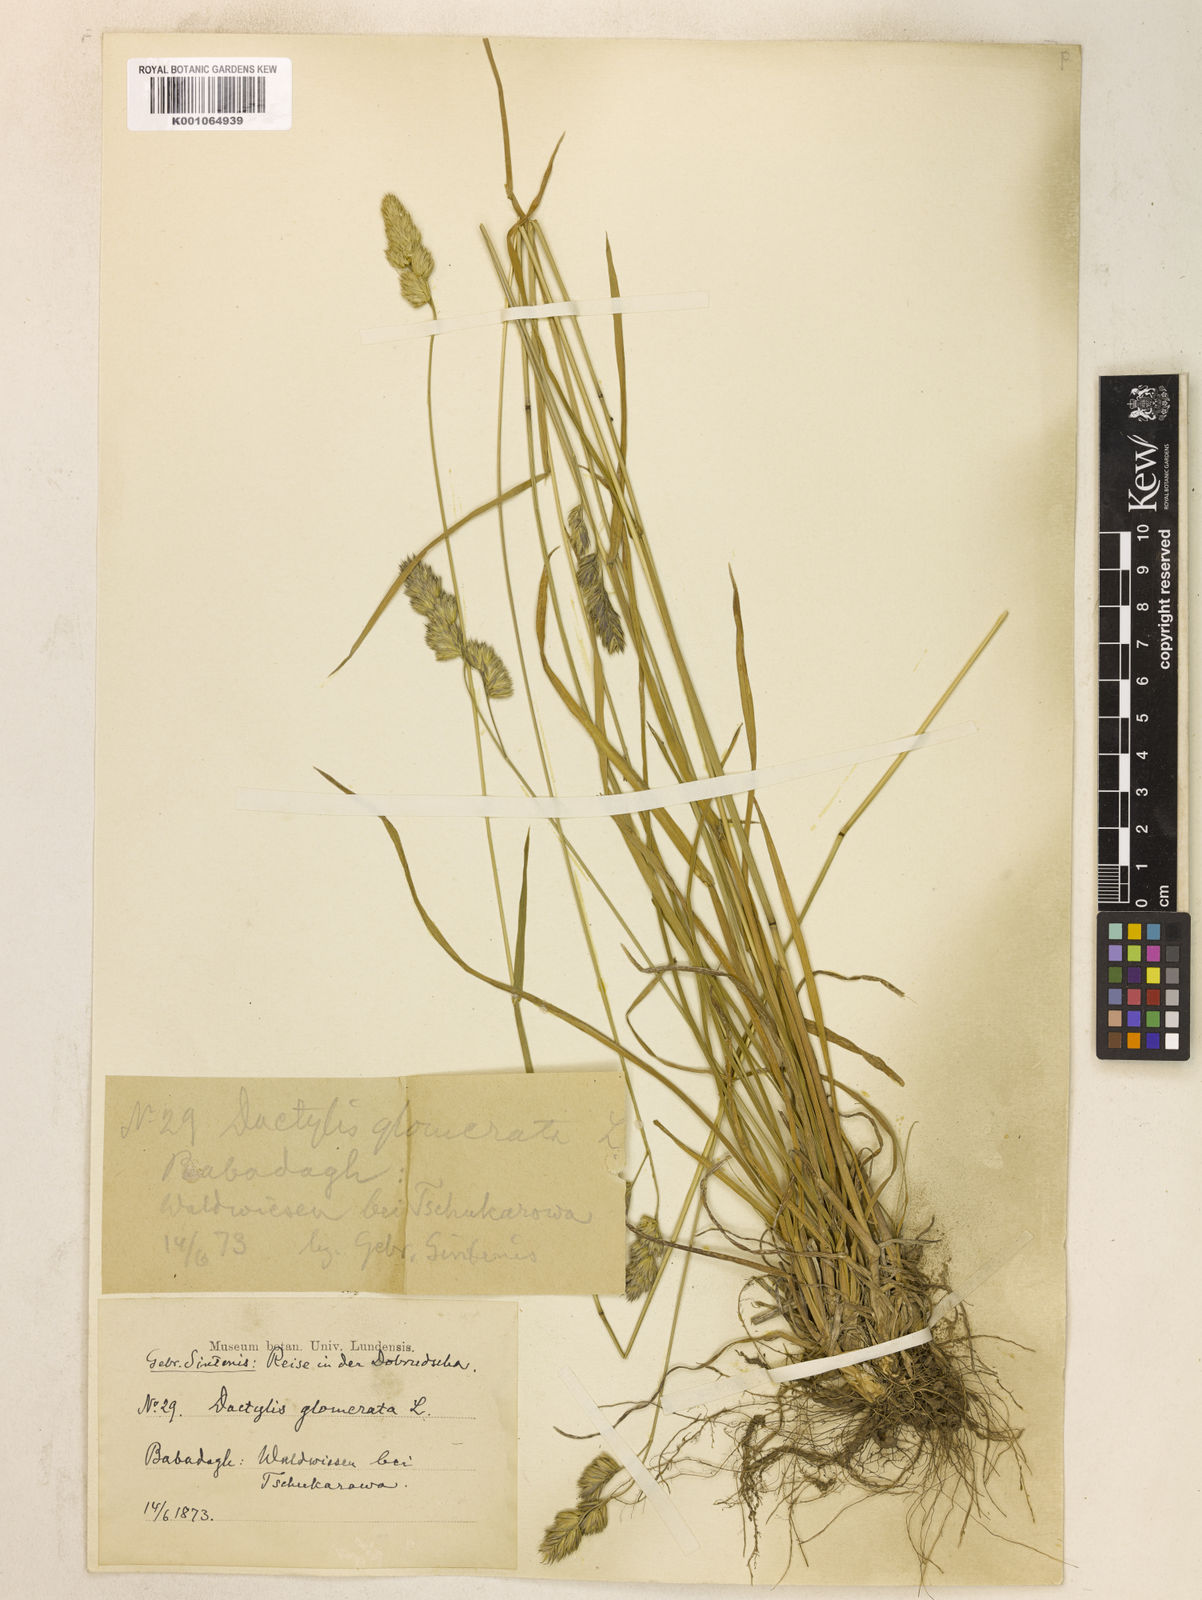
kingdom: Plantae
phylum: Tracheophyta
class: Liliopsida
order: Poales
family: Poaceae
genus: Dactylis
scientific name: Dactylis glomerata
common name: Orchardgrass
